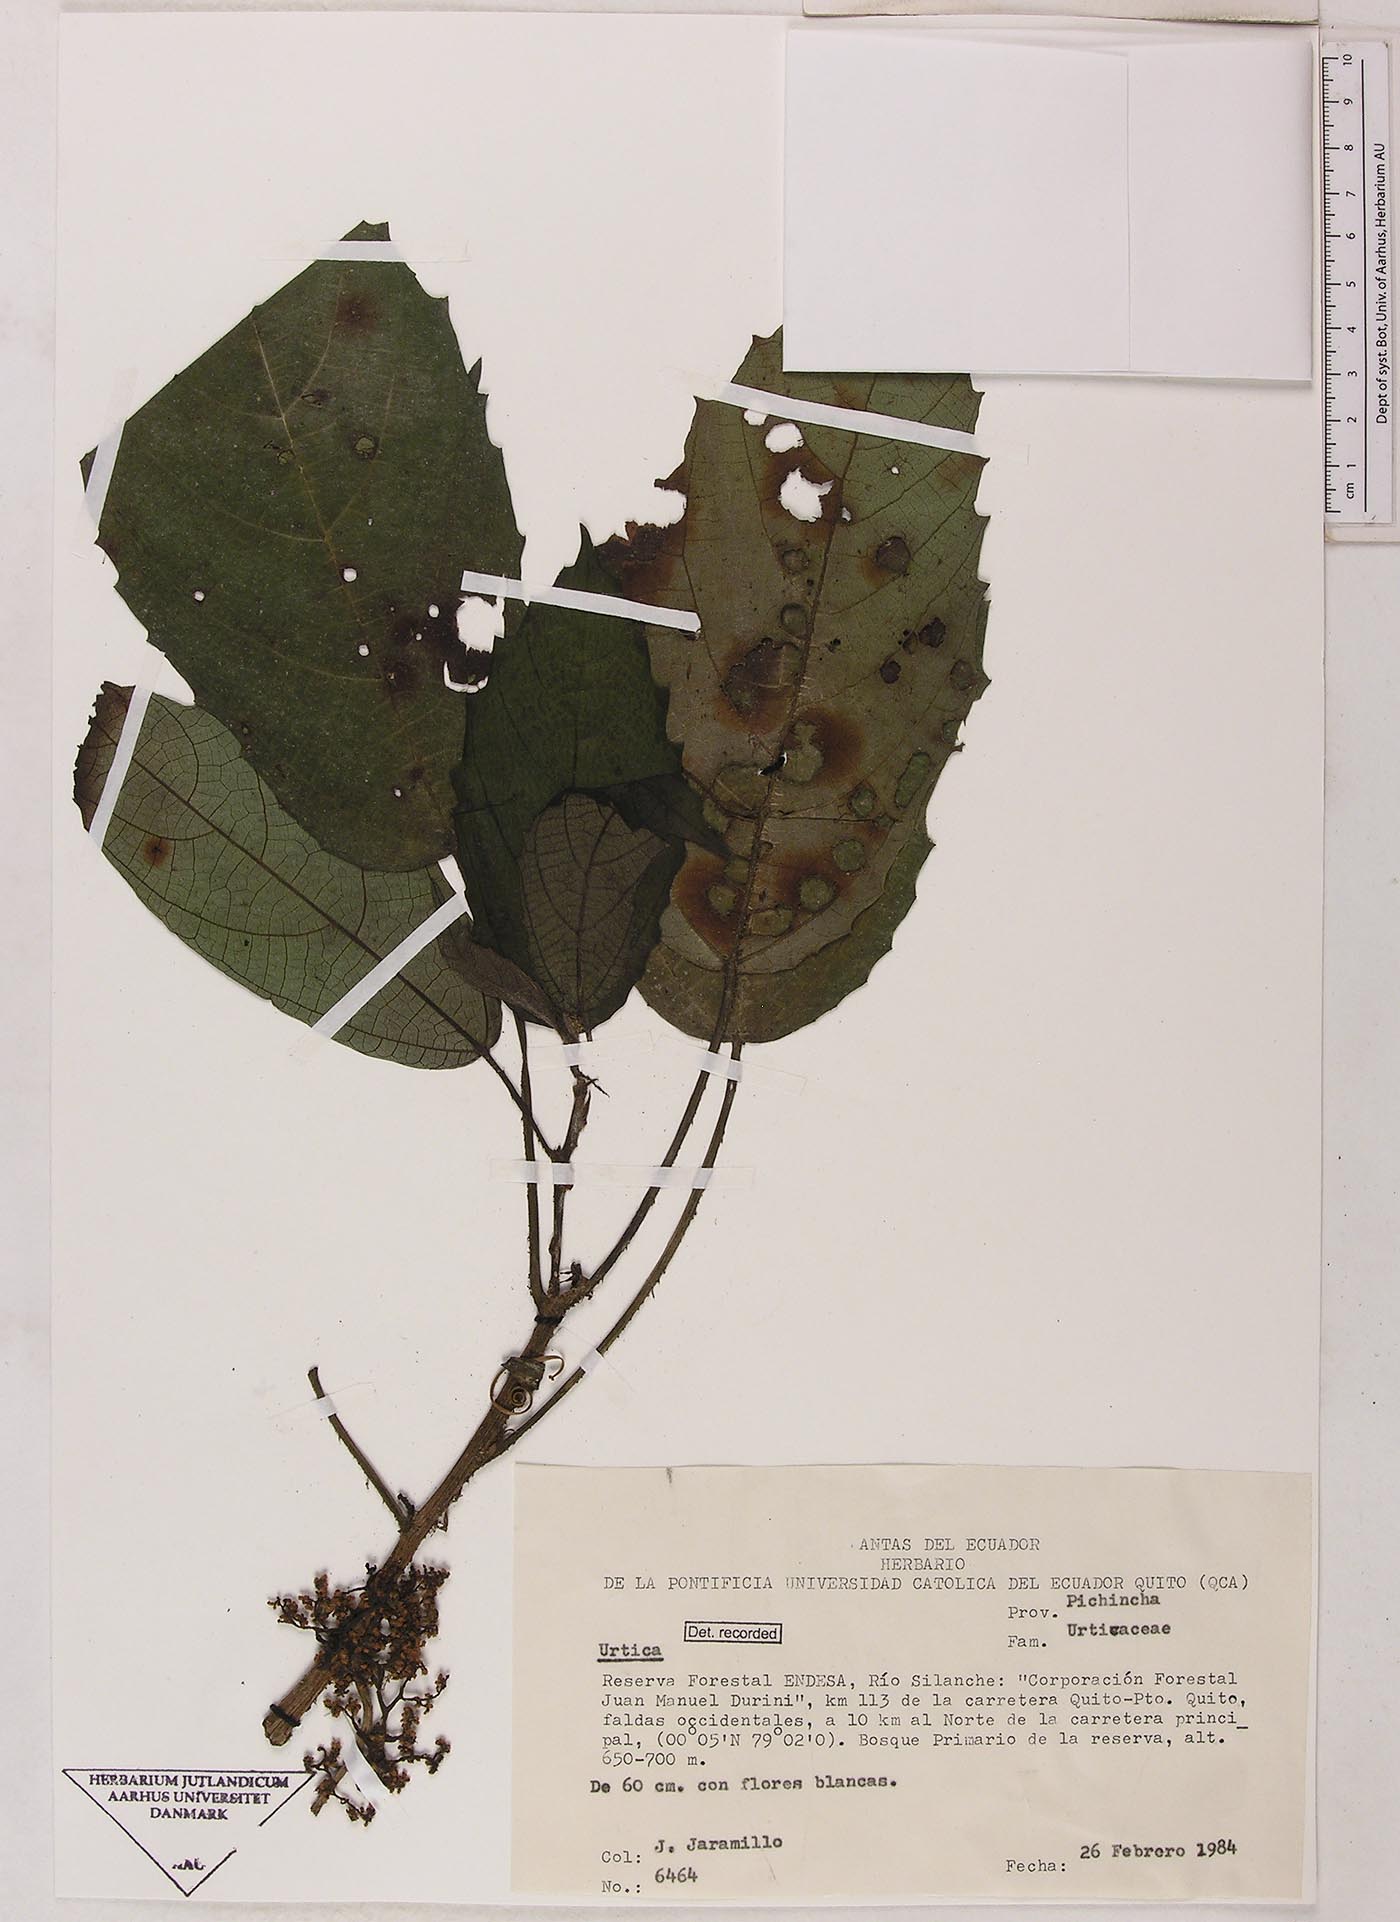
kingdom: Plantae
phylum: Tracheophyta
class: Magnoliopsida
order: Rosales
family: Urticaceae
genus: Urera
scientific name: Urera
